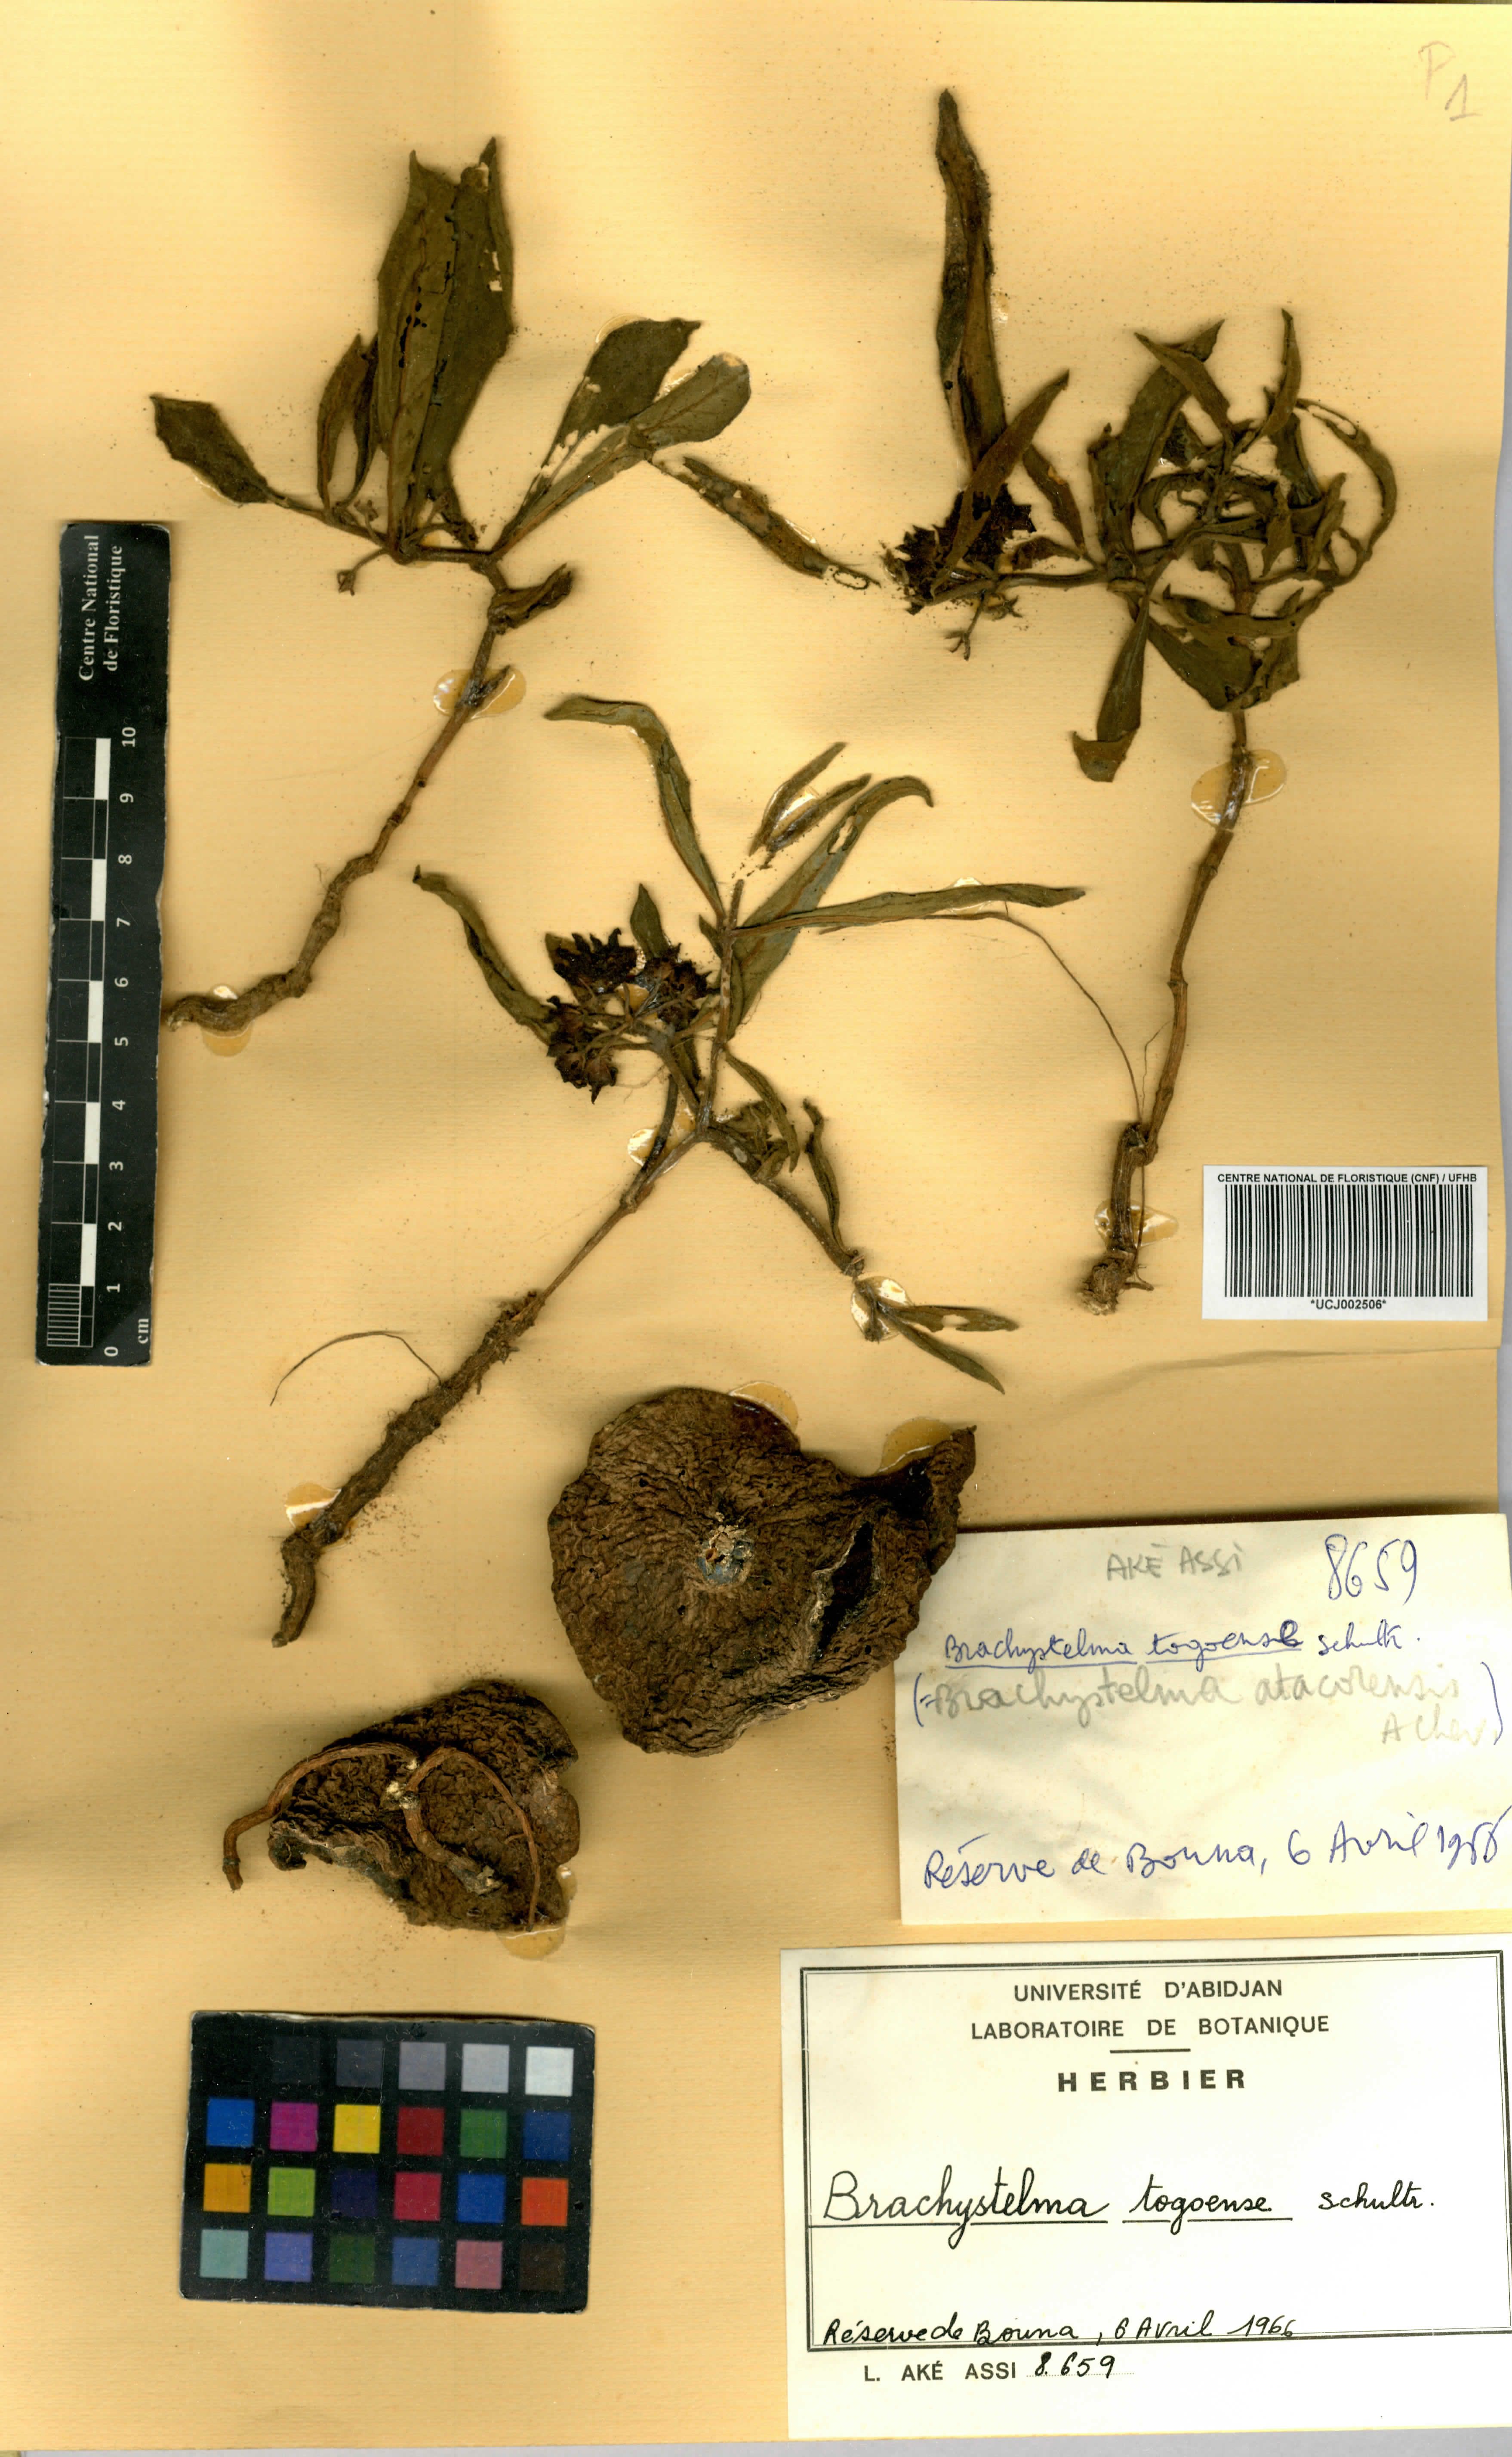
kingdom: Plantae
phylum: Tracheophyta
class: Magnoliopsida
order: Gentianales
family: Apocynaceae
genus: Ceropegia
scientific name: Ceropegia togoensis
